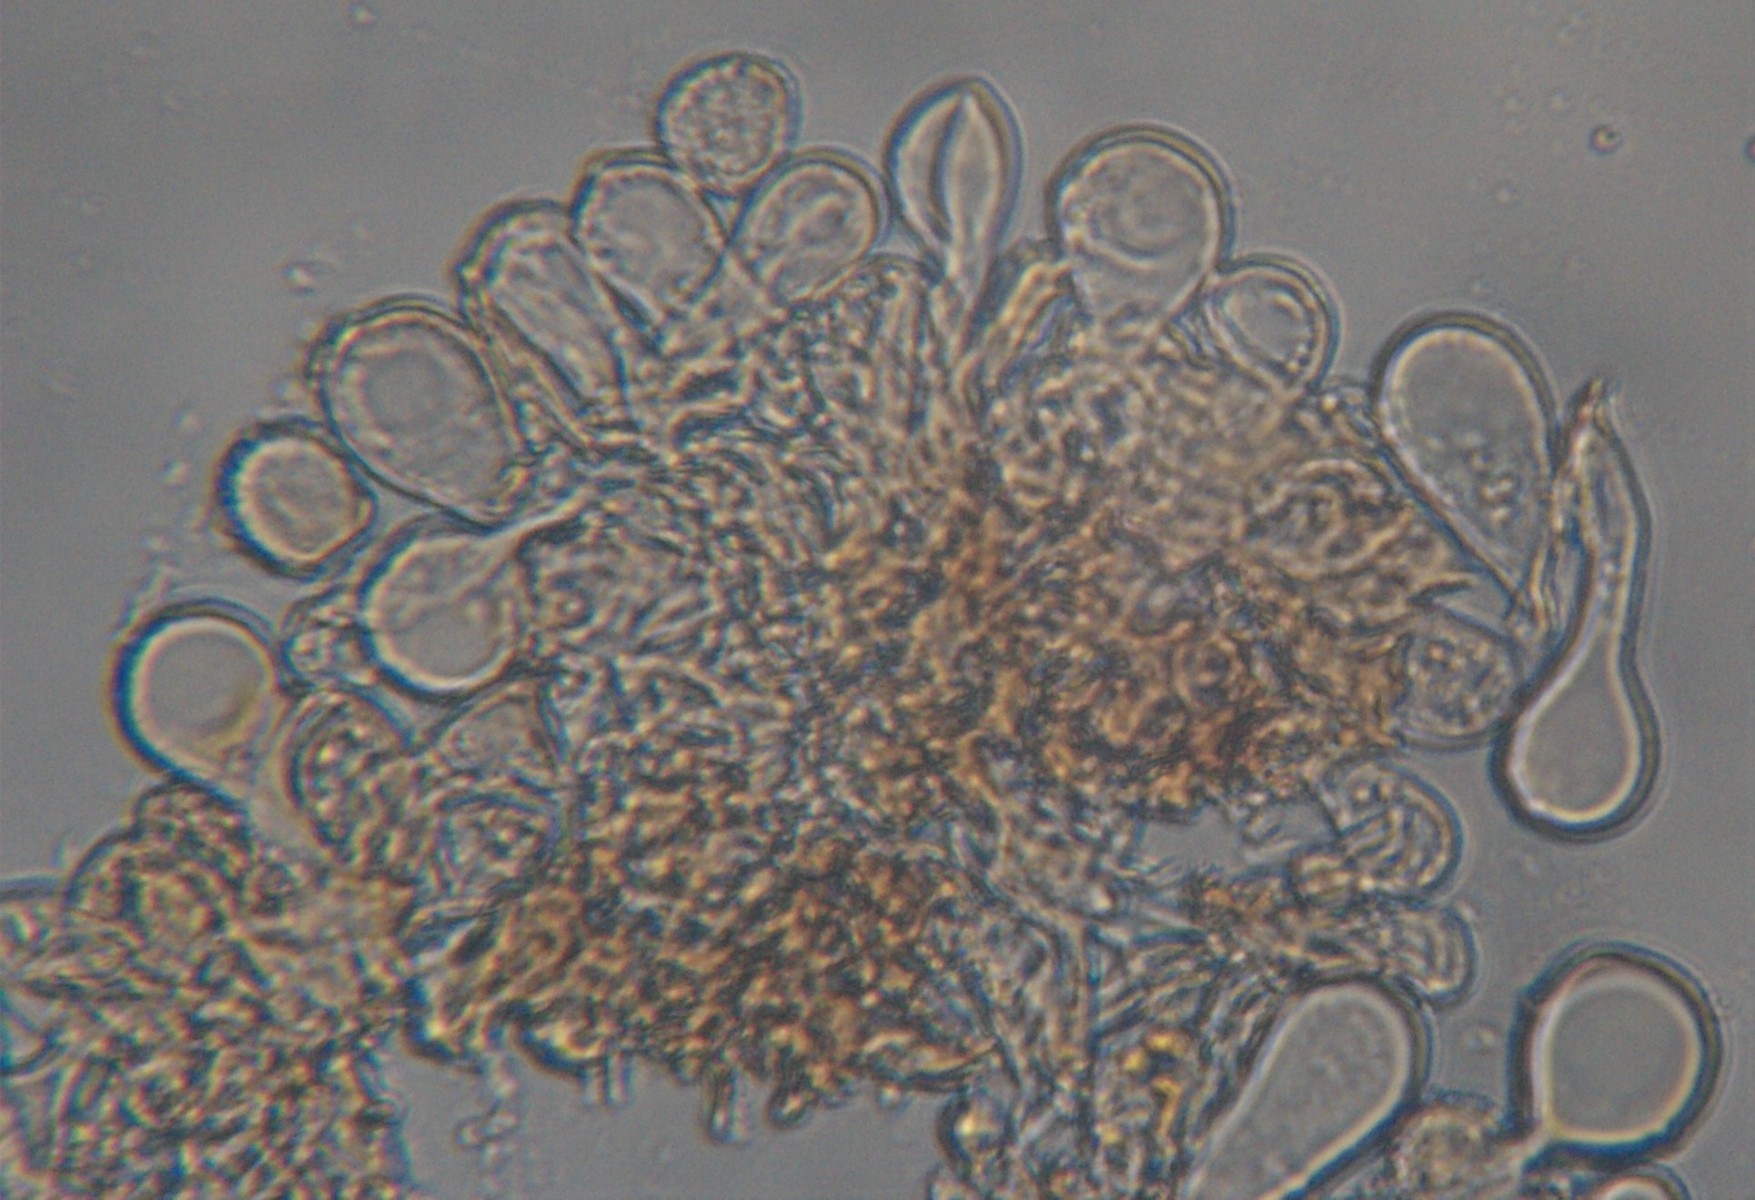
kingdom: Fungi
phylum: Basidiomycota
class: Pucciniomycetes
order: Pucciniales
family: Melampsoraceae
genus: Melampsora
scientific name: Melampsora epitea
